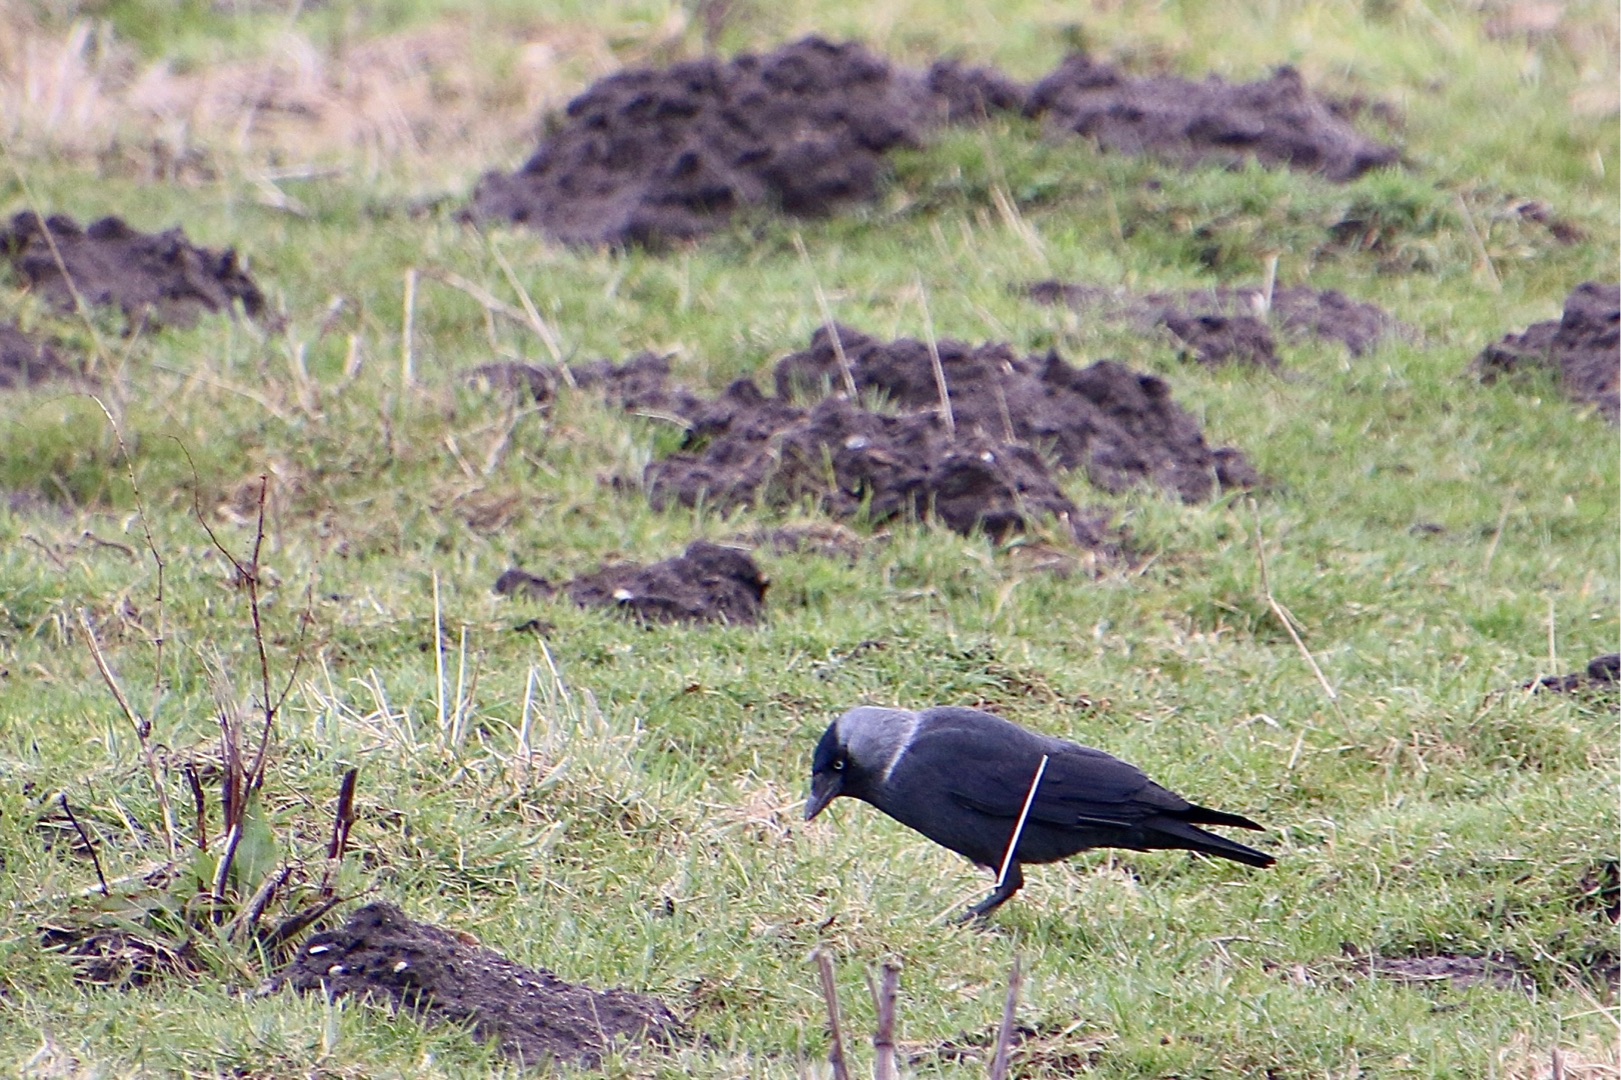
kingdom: Animalia
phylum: Chordata
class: Aves
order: Passeriformes
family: Corvidae
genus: Coloeus
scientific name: Coloeus monedula
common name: Allike
